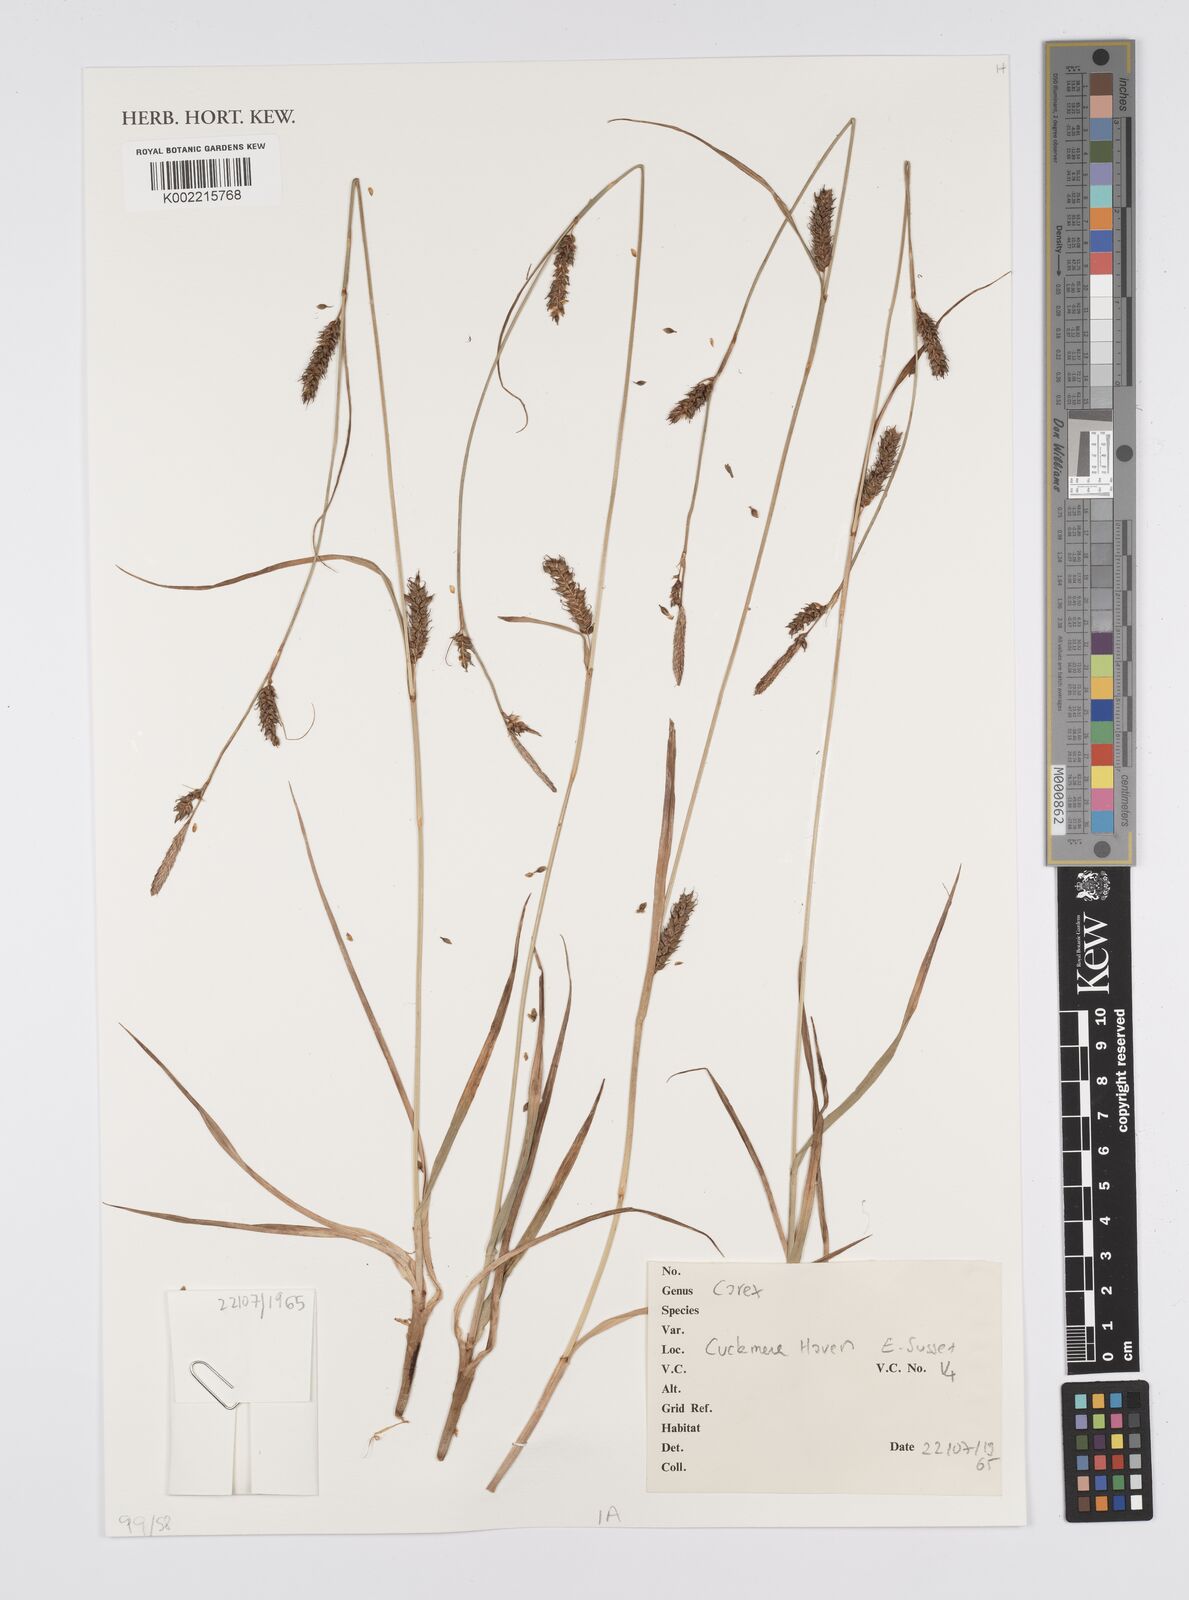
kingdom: Plantae
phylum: Tracheophyta
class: Liliopsida
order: Poales
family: Cyperaceae
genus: Carex
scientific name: Carex
